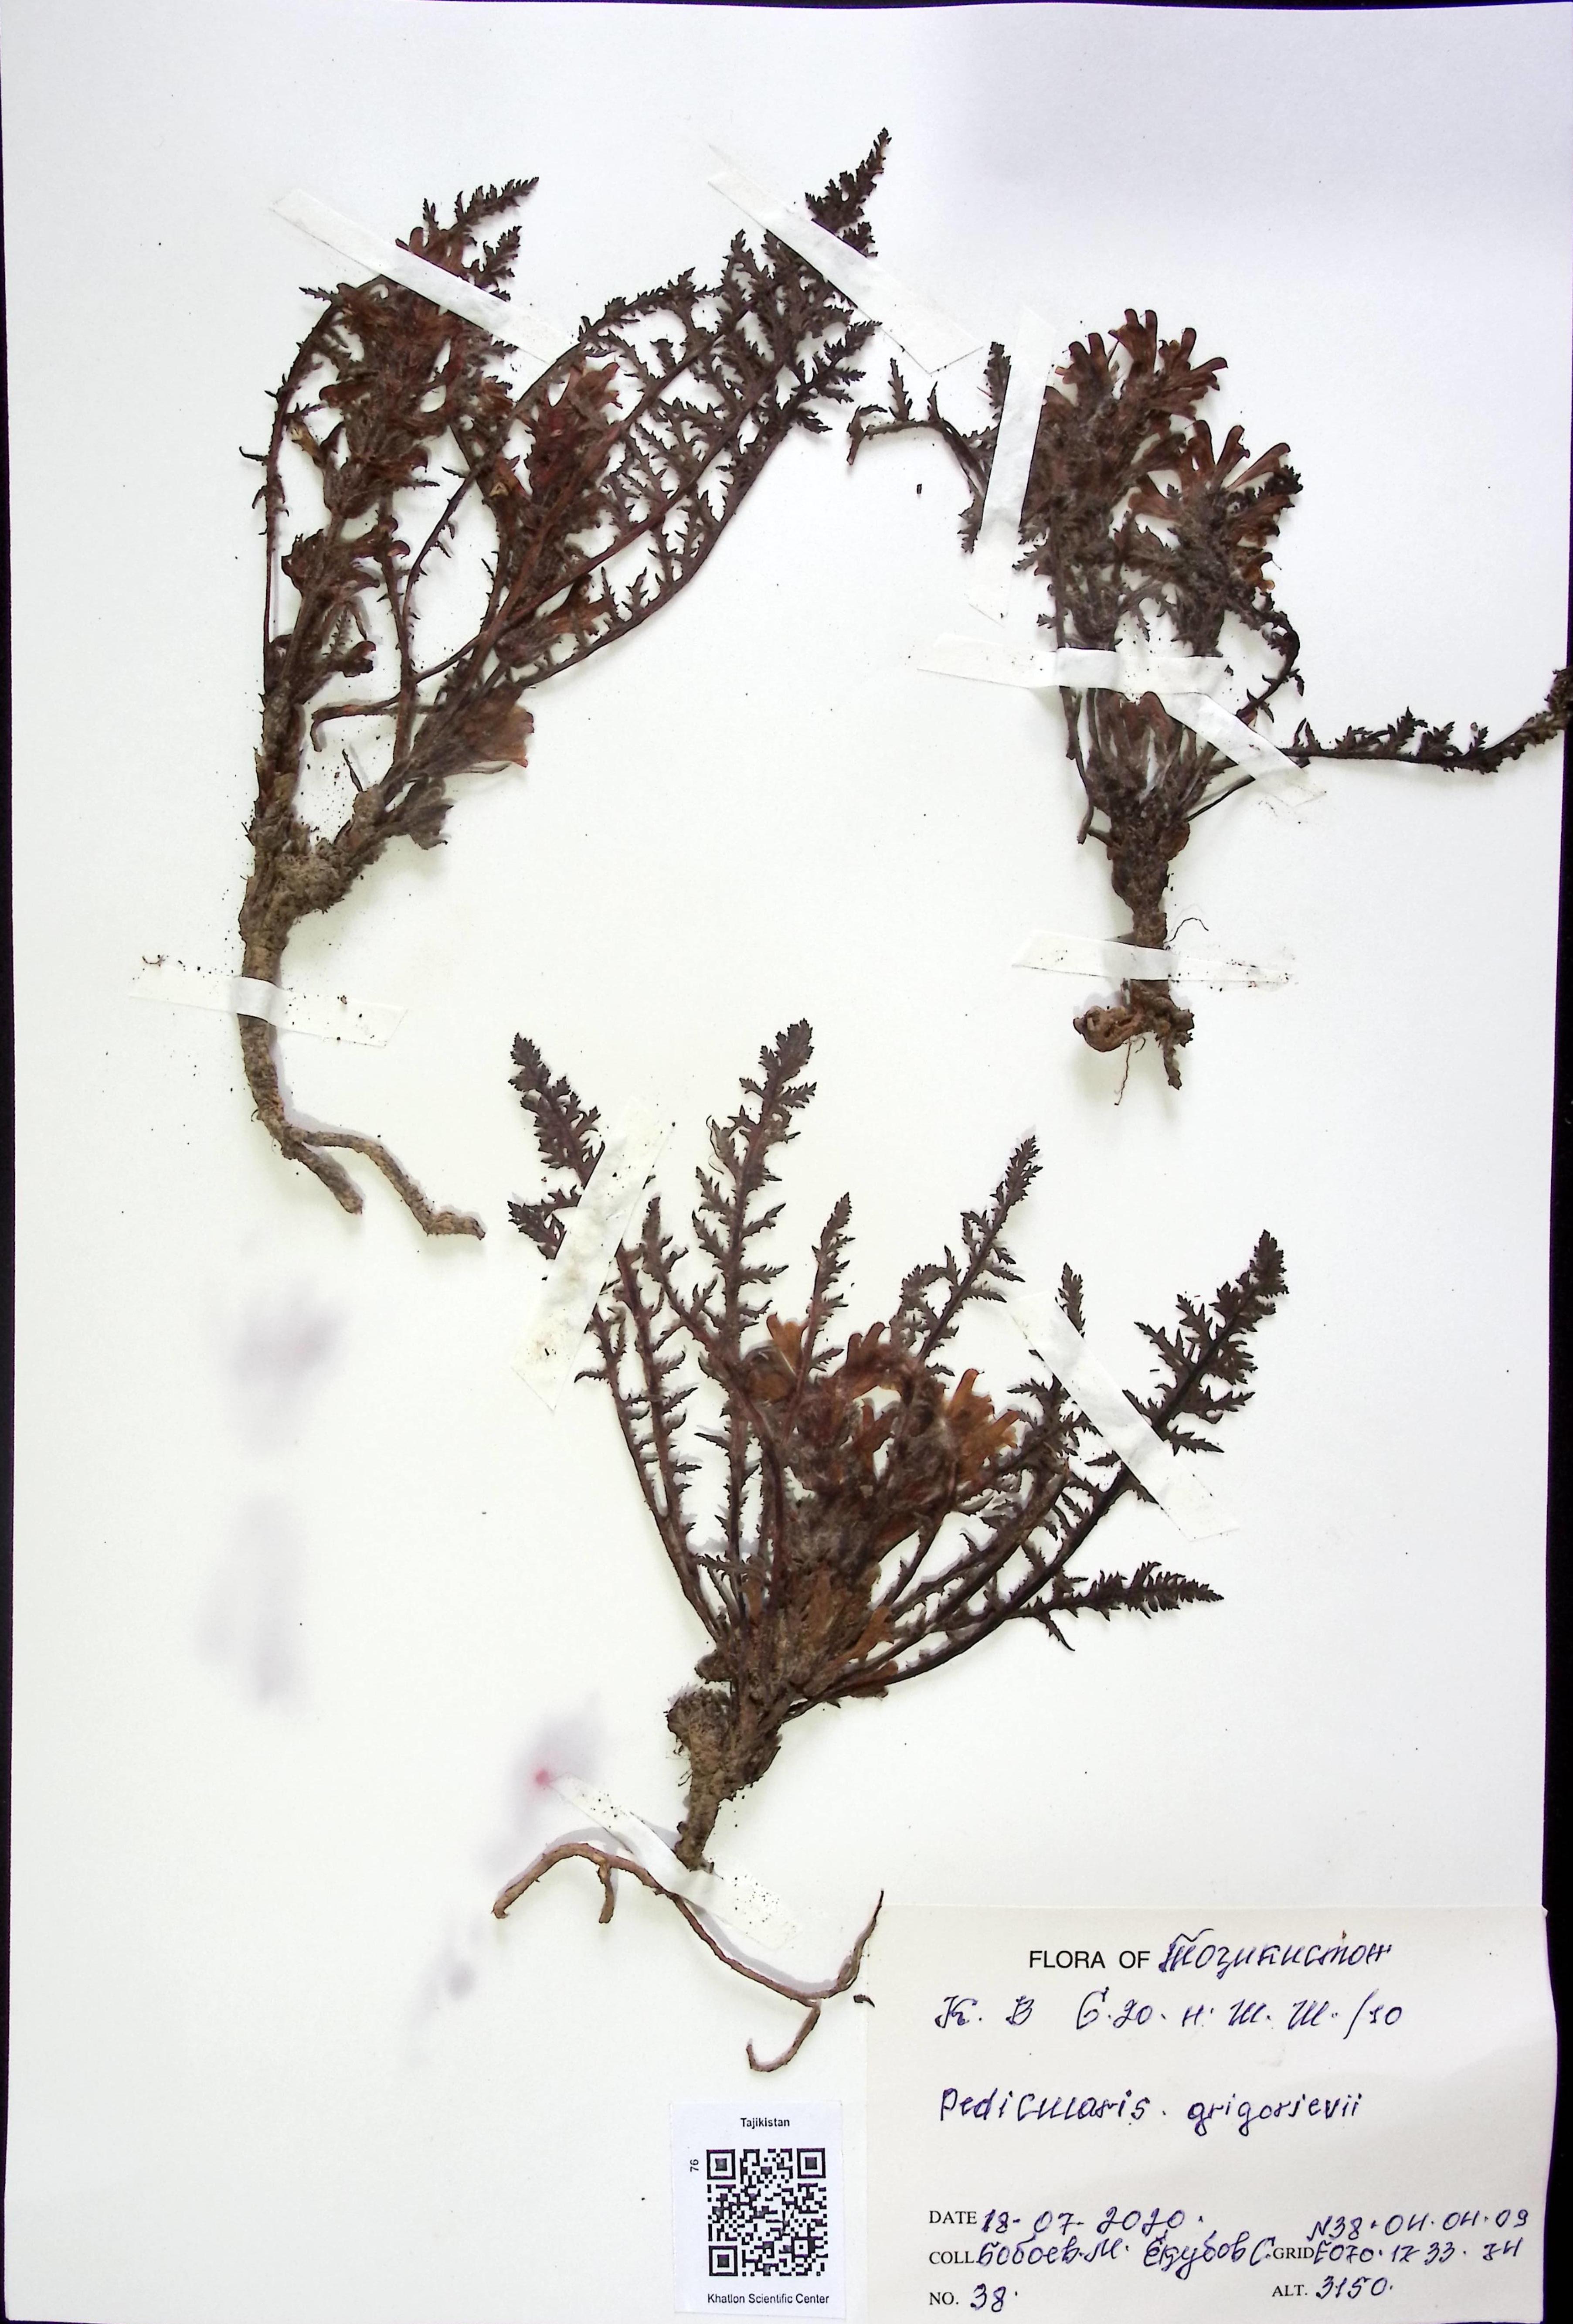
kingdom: Plantae
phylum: Tracheophyta
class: Magnoliopsida
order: Lamiales
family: Orobanchaceae
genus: Pedicularis
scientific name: Pedicularis grigorjevii
